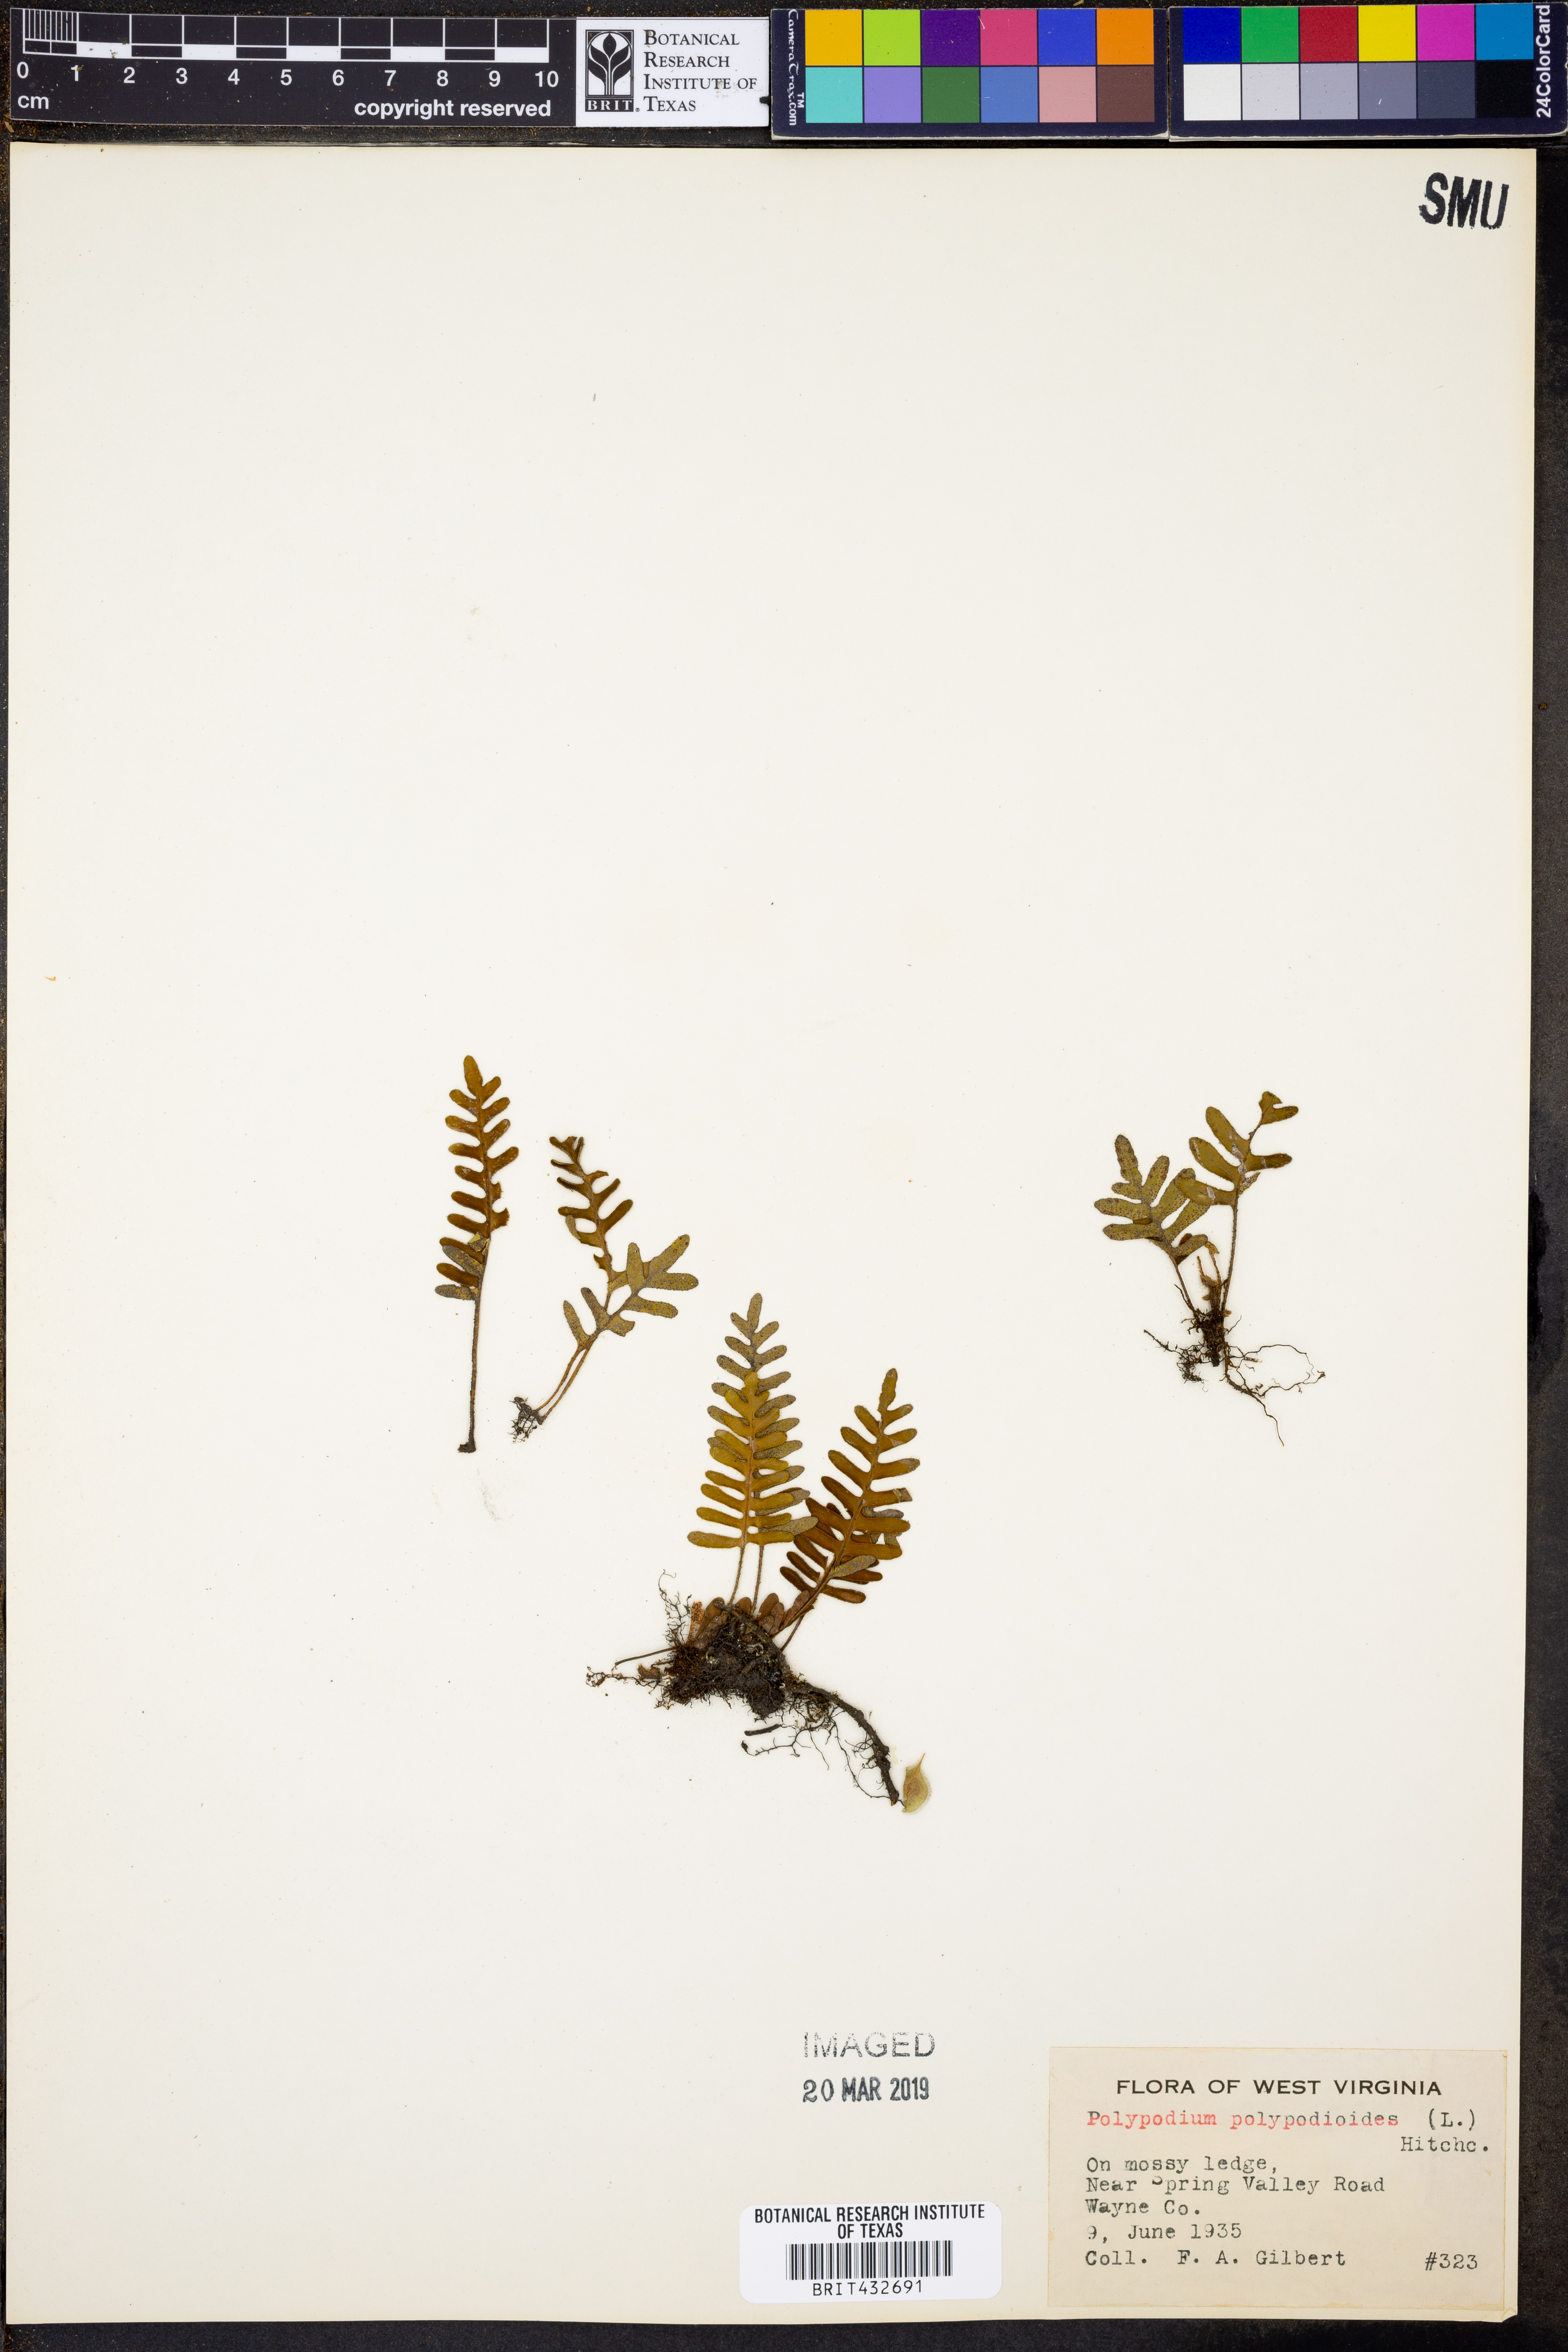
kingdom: Plantae
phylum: Tracheophyta
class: Polypodiopsida
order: Polypodiales
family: Polypodiaceae
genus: Pleopeltis
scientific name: Pleopeltis polypodioides
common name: Resurrection fern
